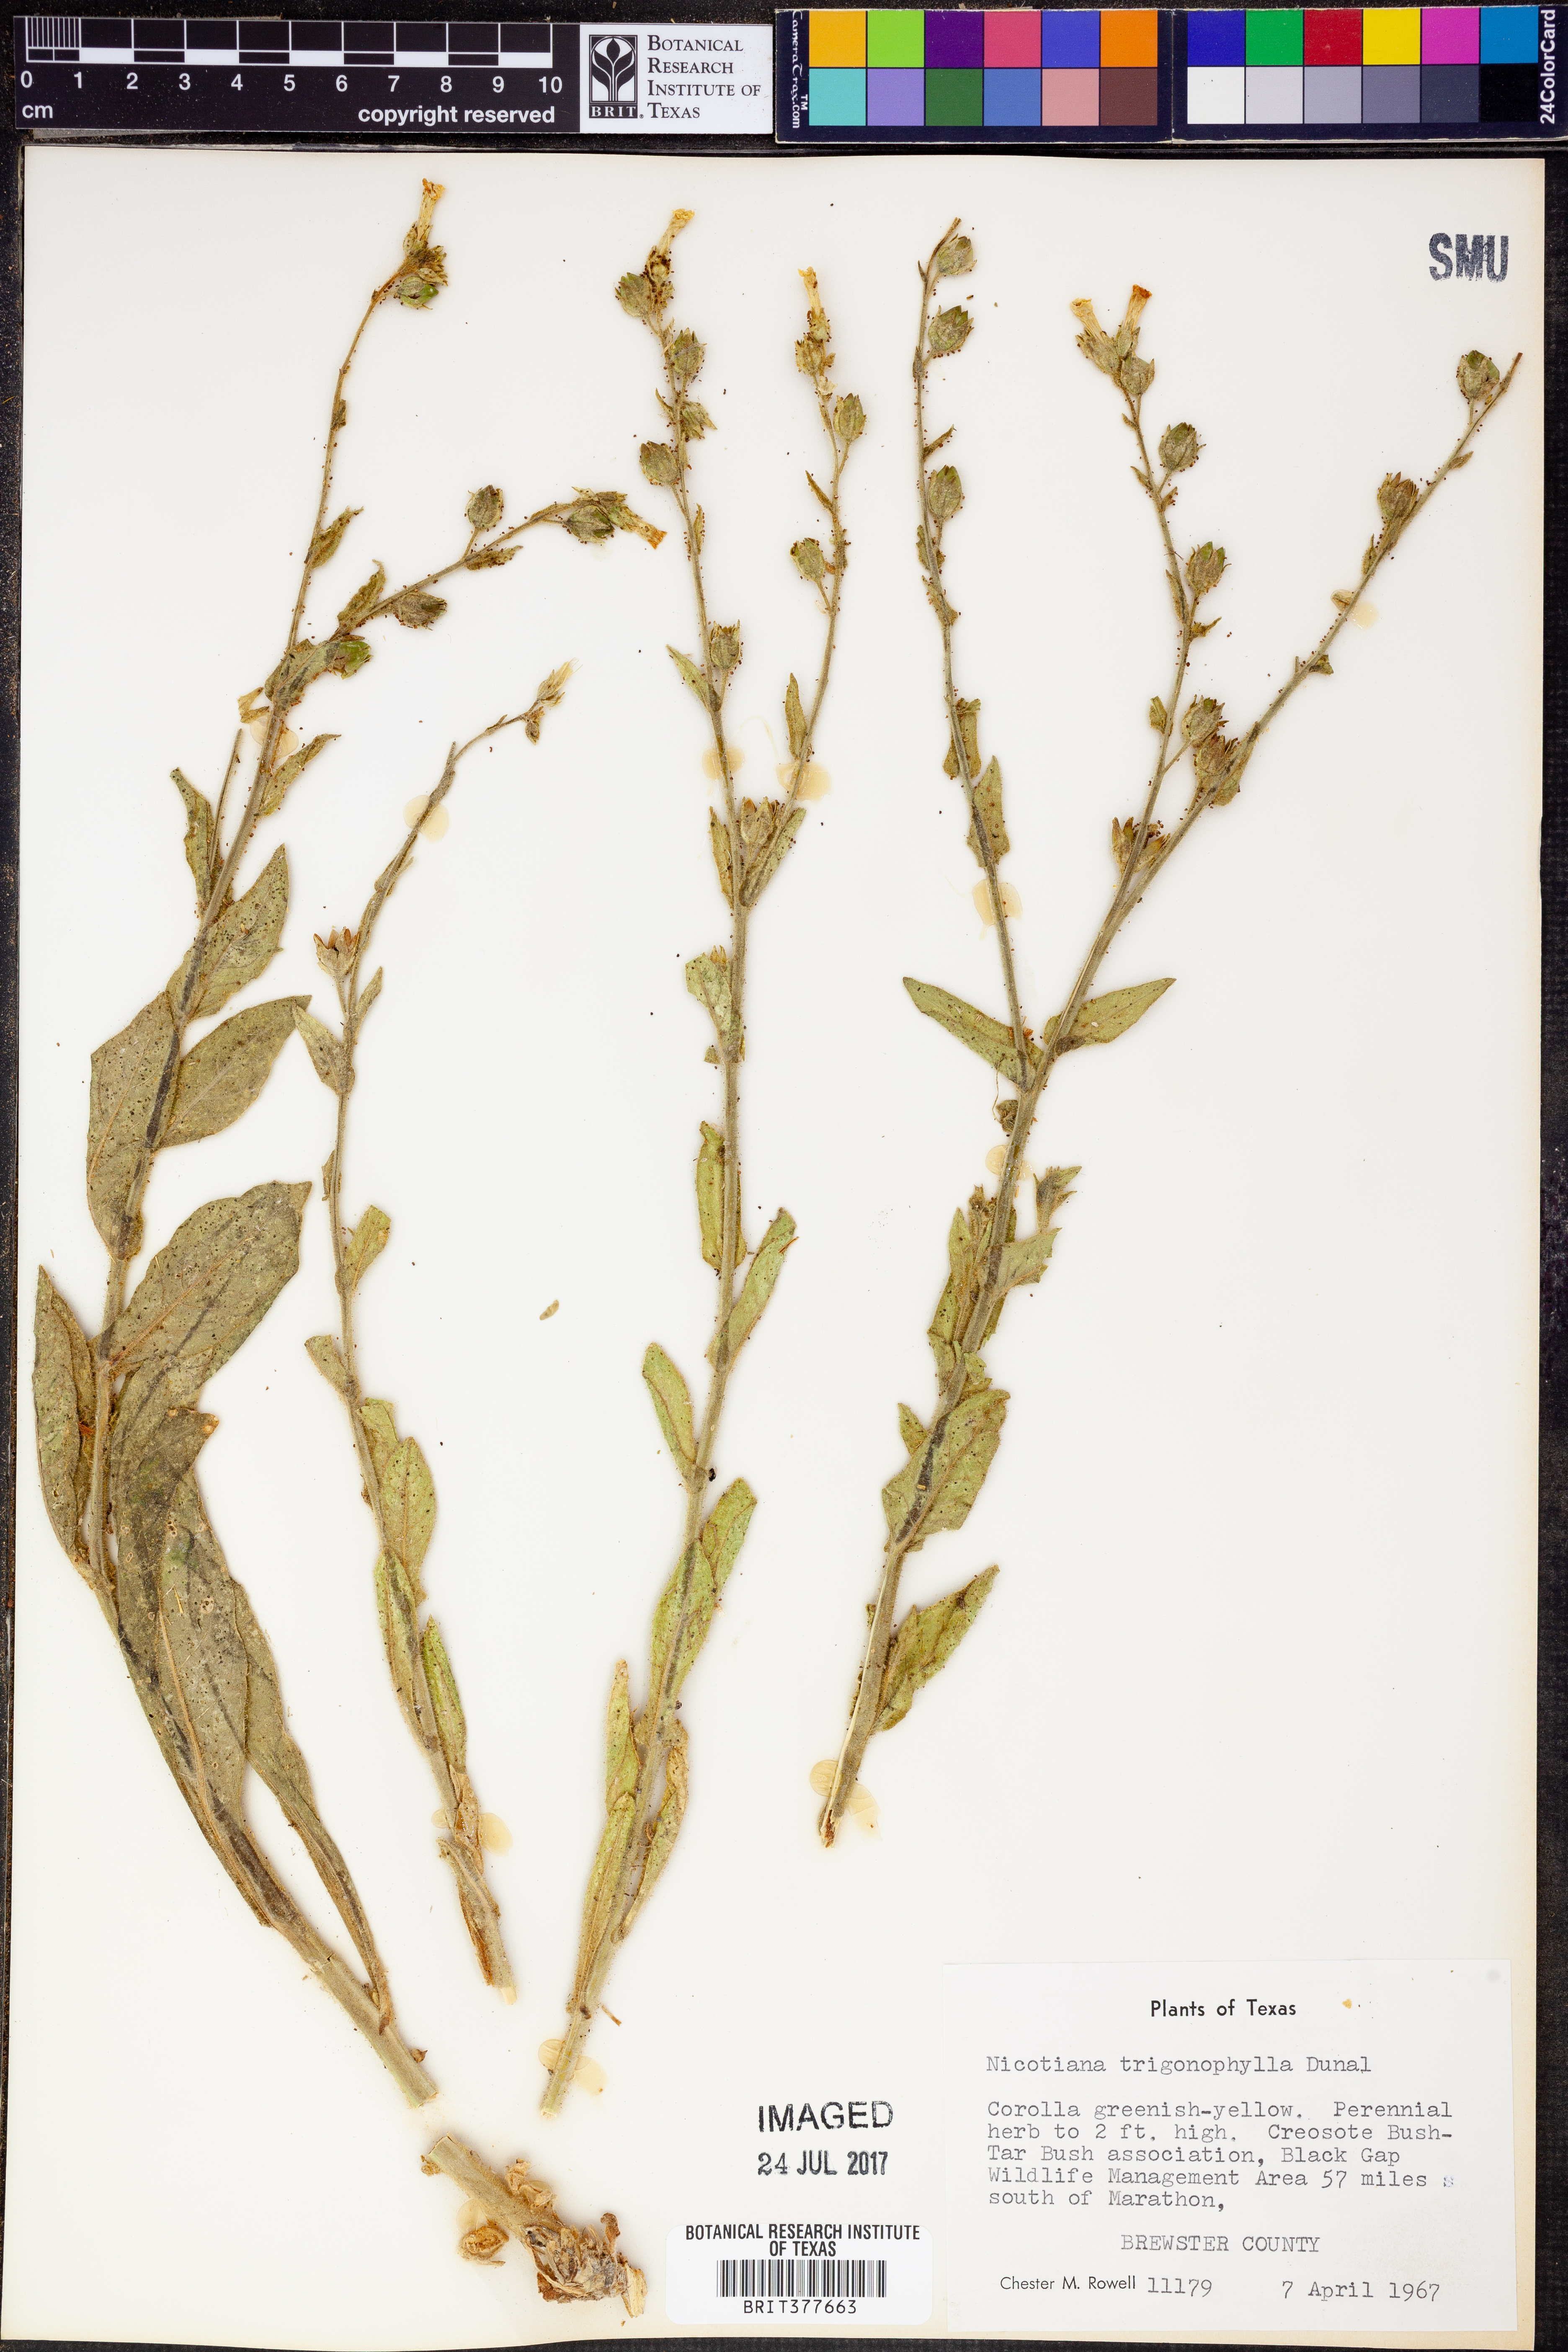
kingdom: Plantae
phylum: Tracheophyta
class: Magnoliopsida
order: Solanales
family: Solanaceae
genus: Nicotiana
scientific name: Nicotiana obtusifolia
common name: Desert tobacco
